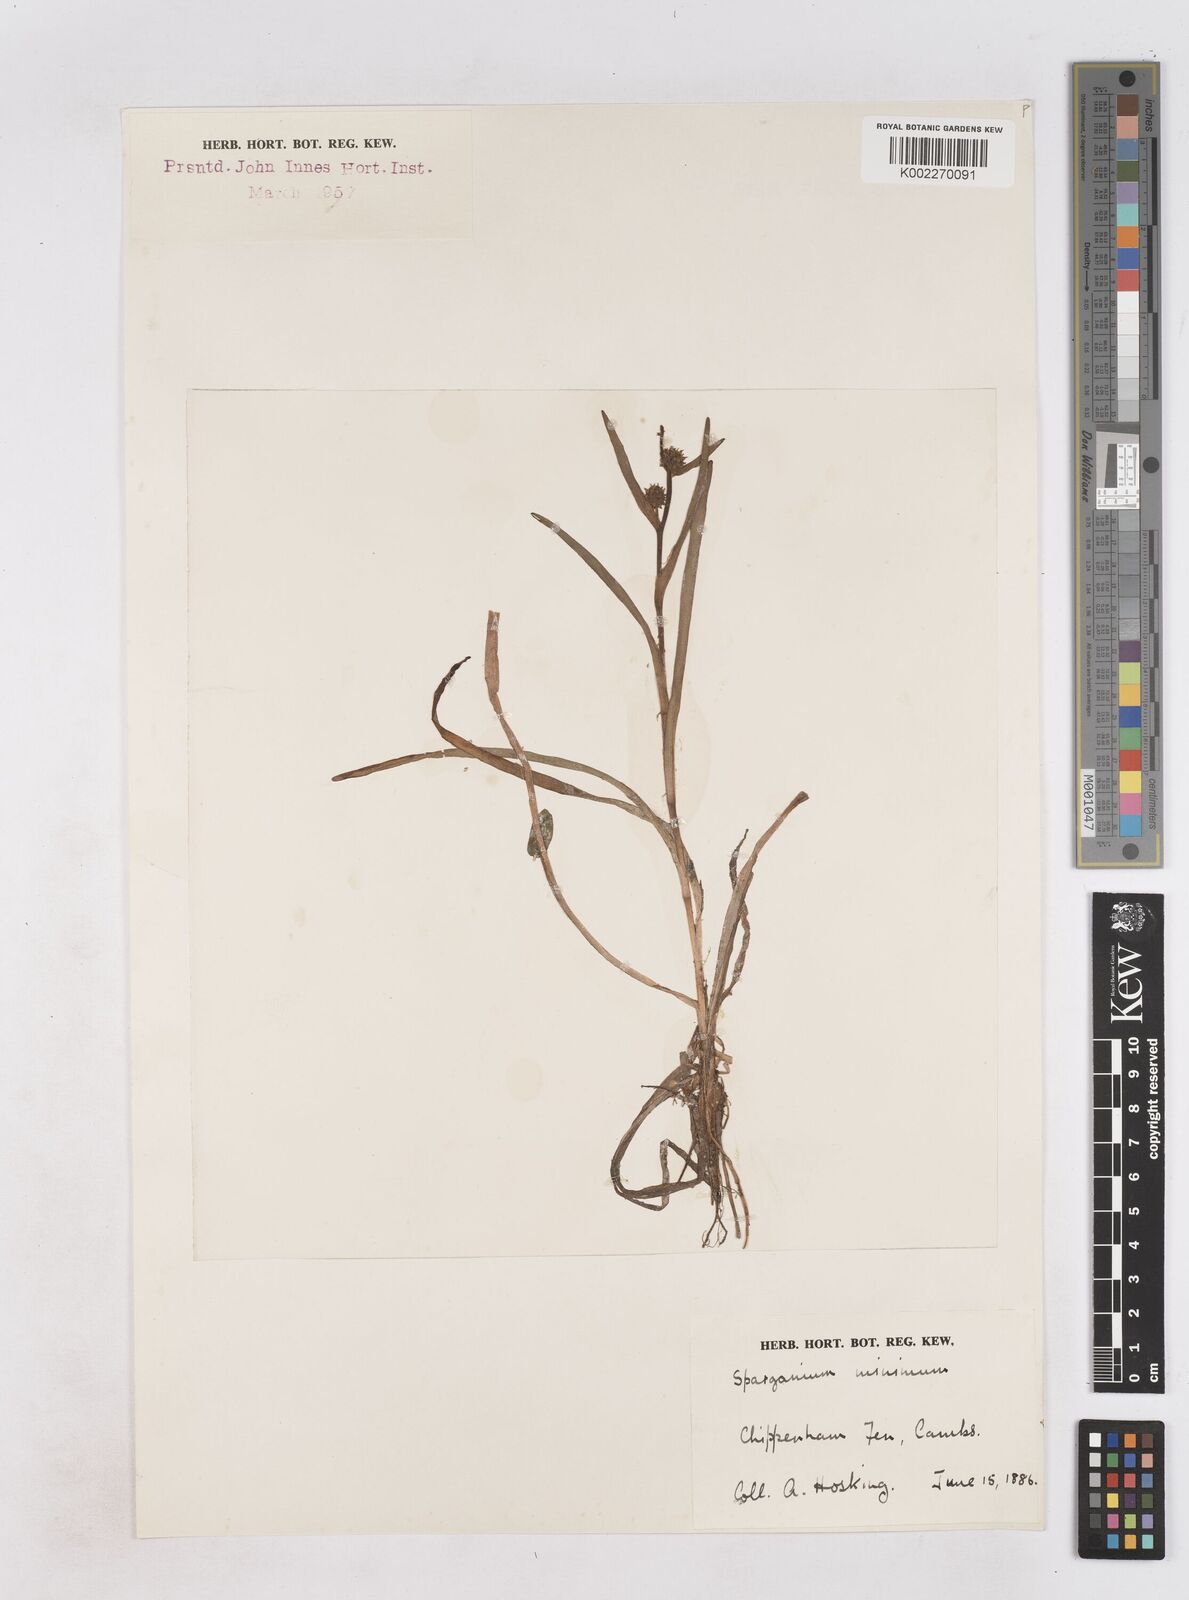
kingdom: Plantae
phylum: Tracheophyta
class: Liliopsida
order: Poales
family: Typhaceae
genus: Sparganium
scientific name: Sparganium natans
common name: Least bur-reed
